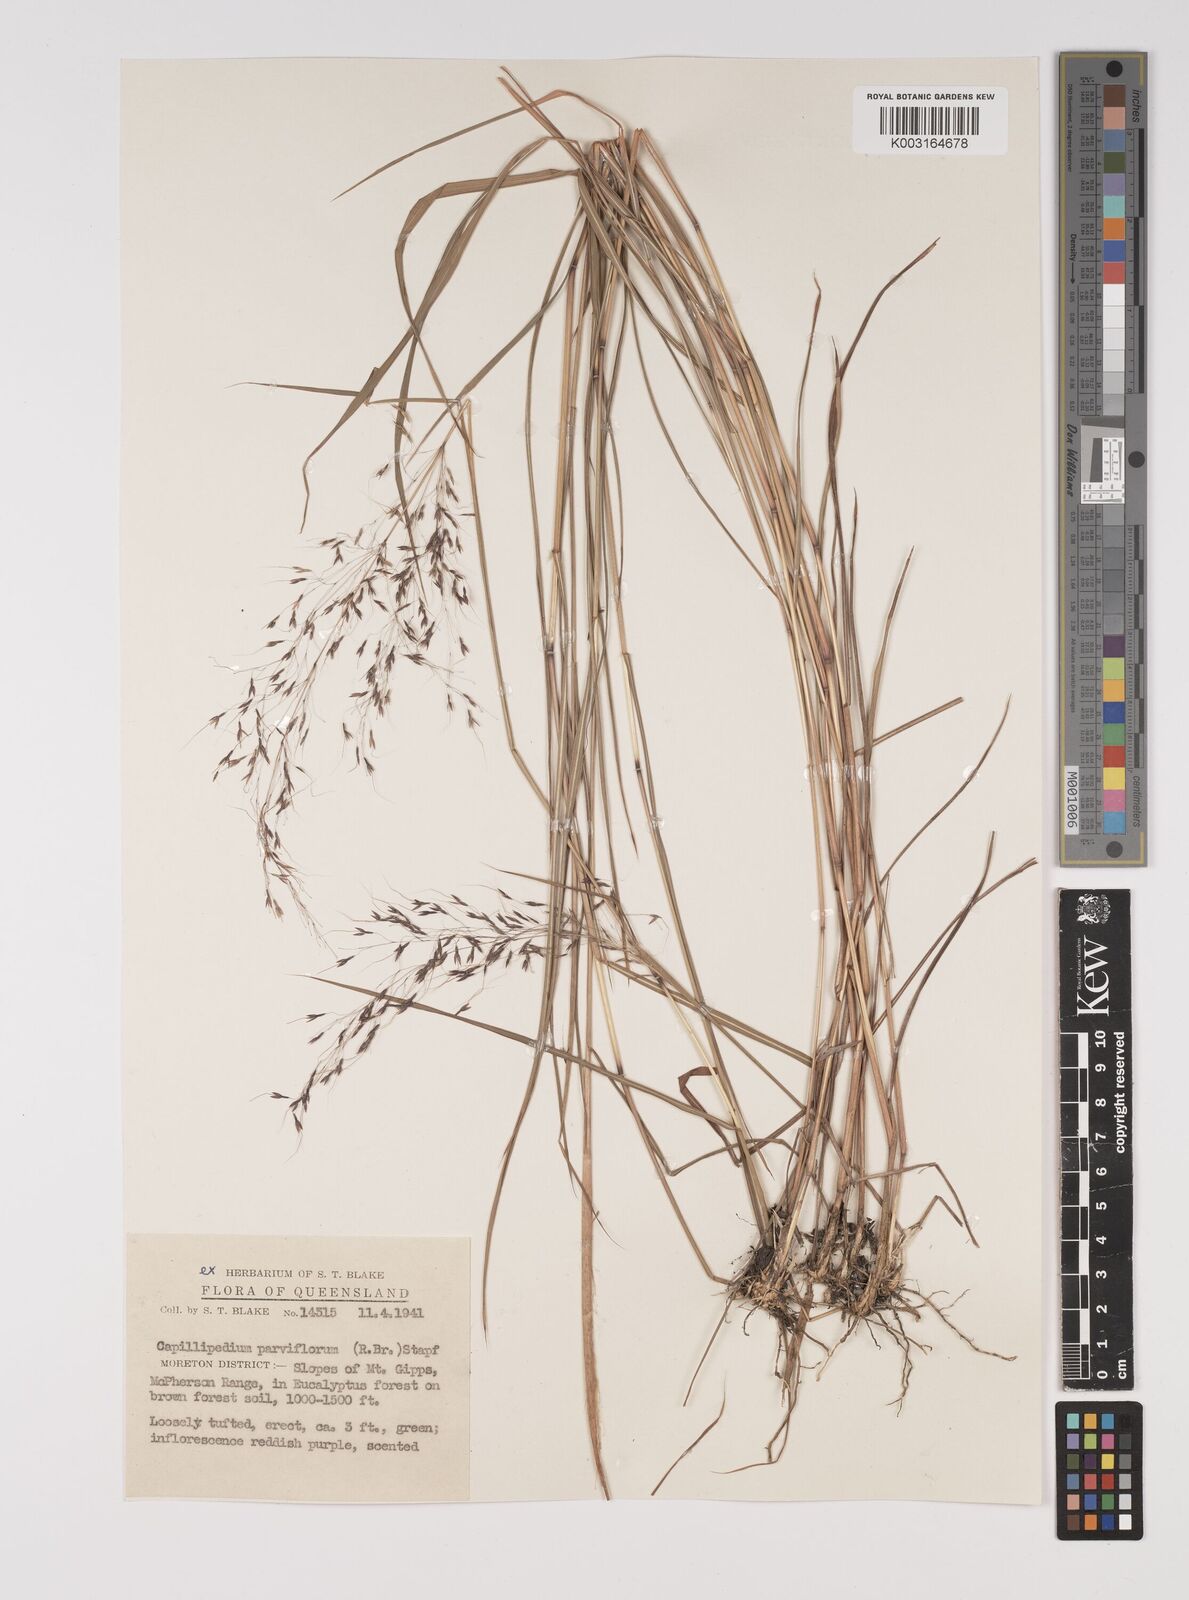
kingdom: Plantae
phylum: Tracheophyta
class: Liliopsida
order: Poales
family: Poaceae
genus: Capillipedium
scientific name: Capillipedium parviflorum
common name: Golden-beard
